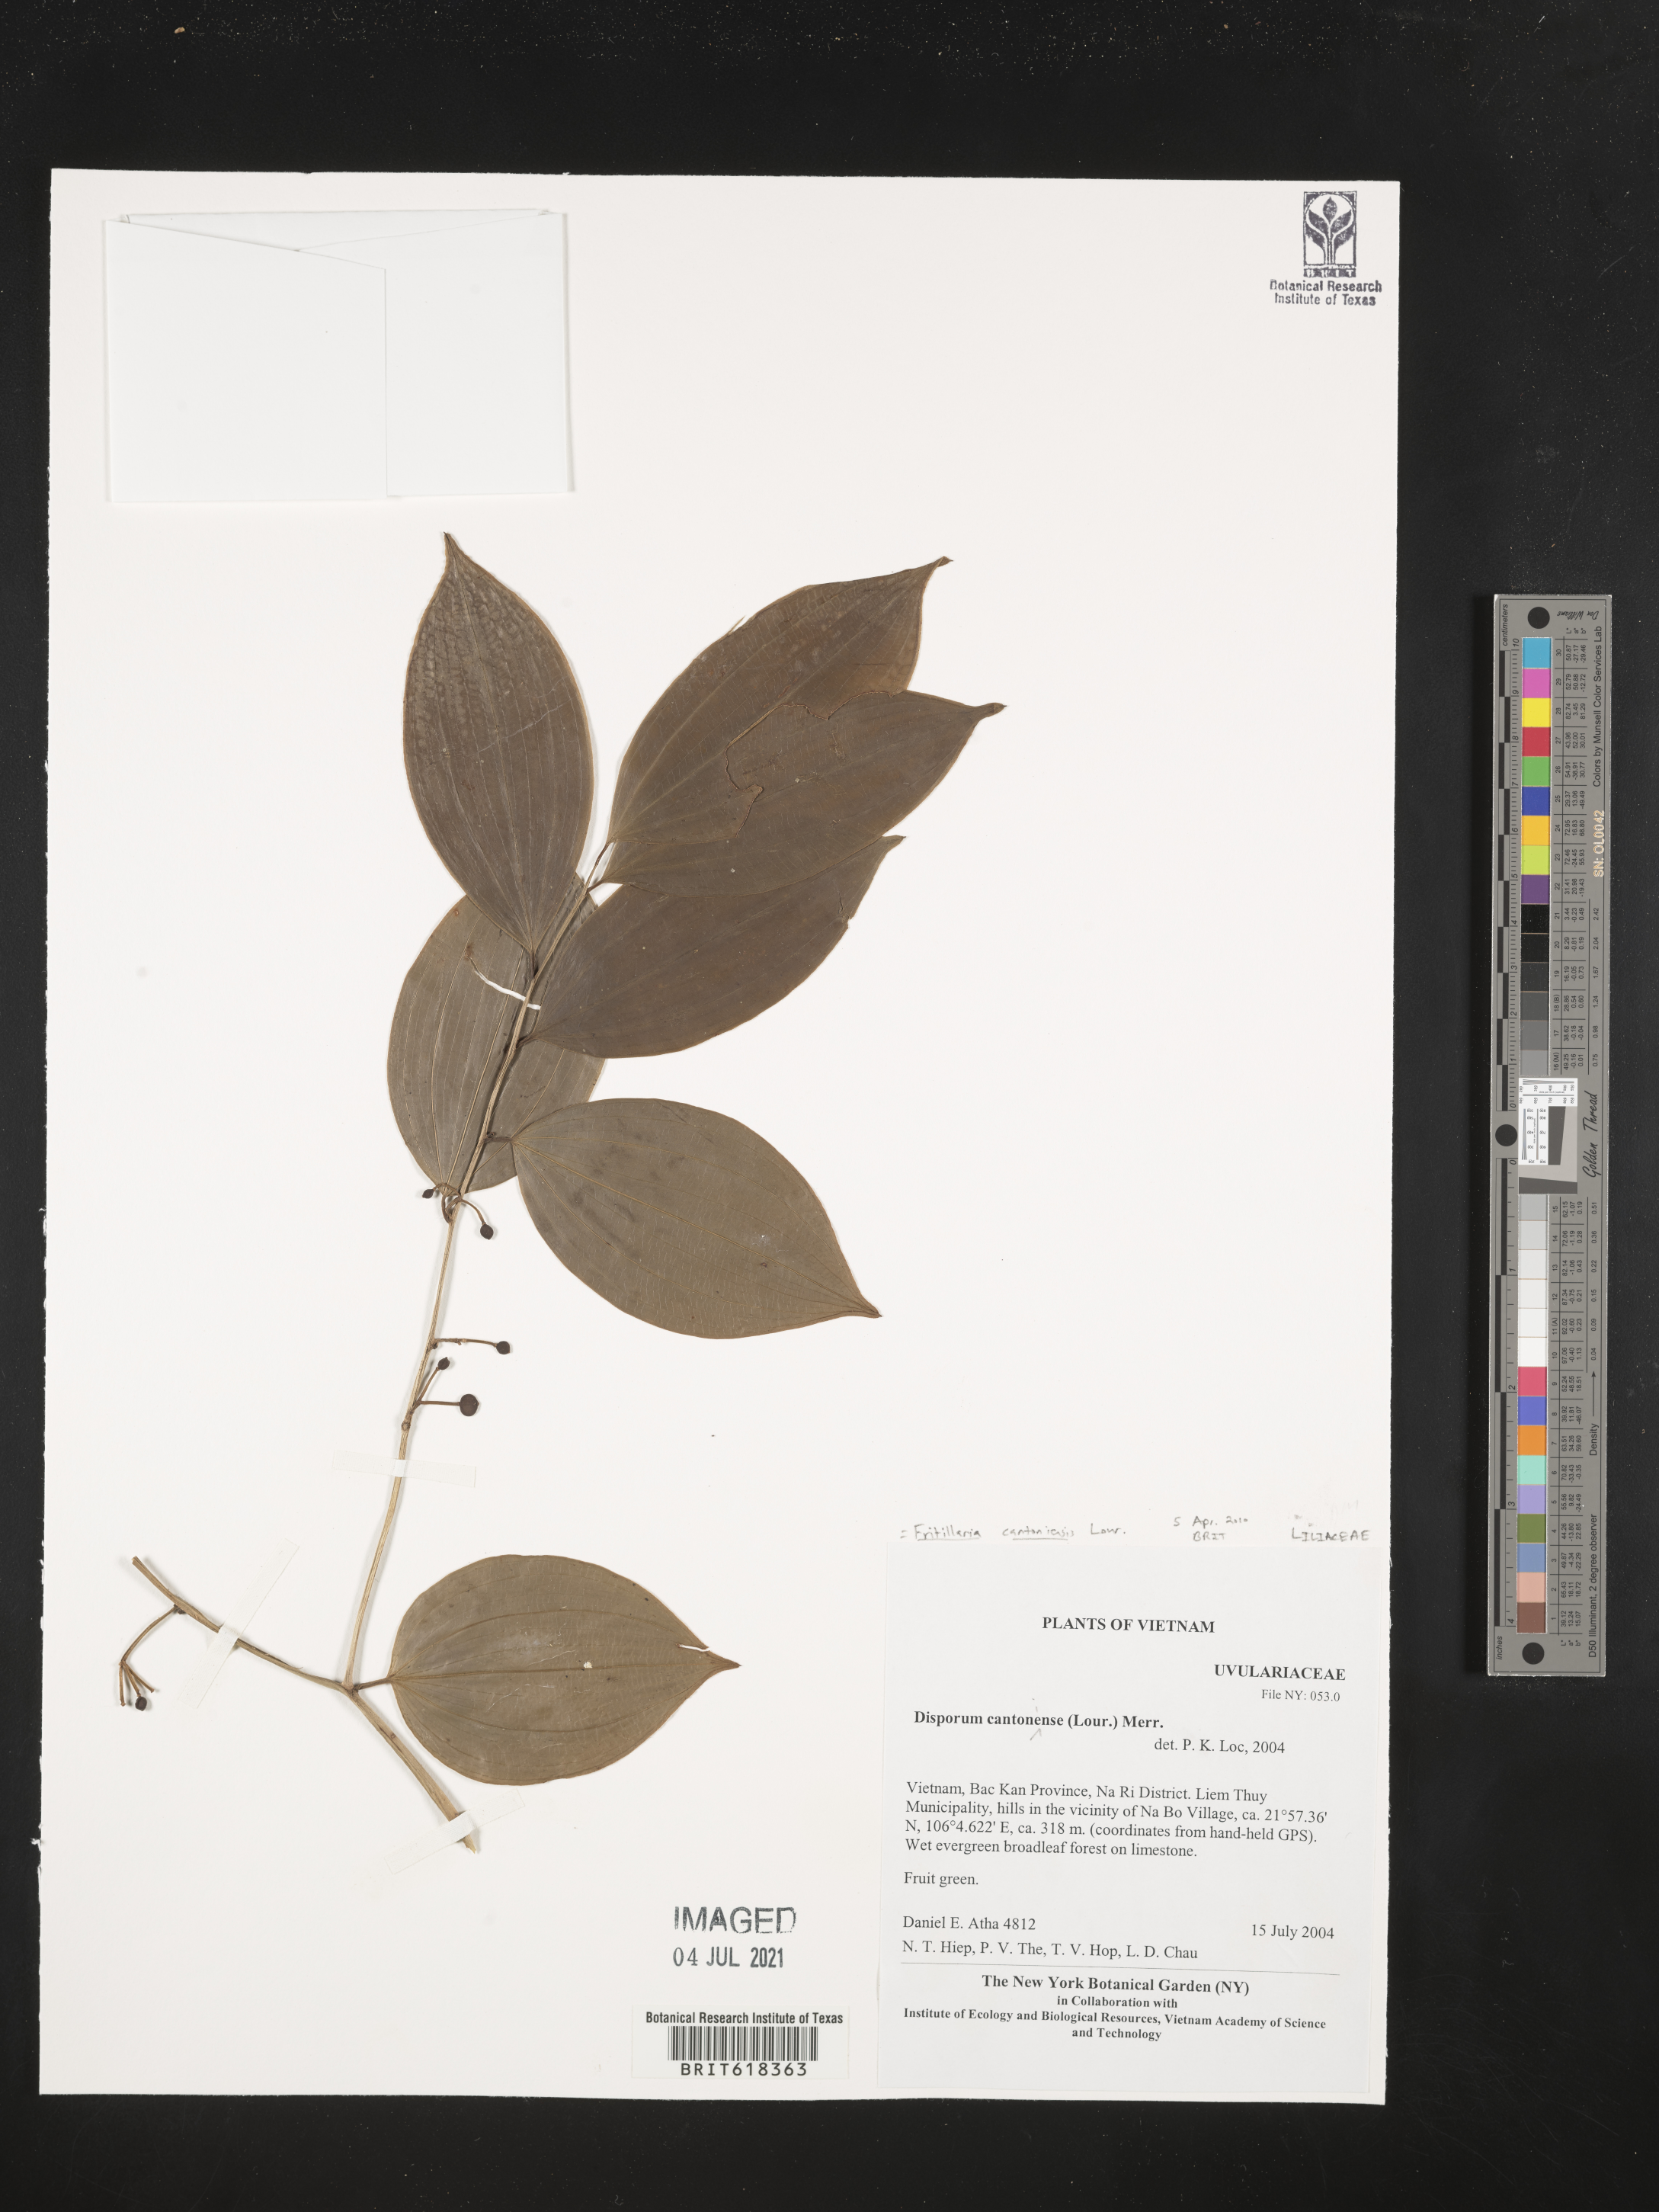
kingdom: Plantae
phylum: Tracheophyta
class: Liliopsida
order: Liliales
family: Colchicaceae
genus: Disporum
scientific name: Disporum cantoniense
